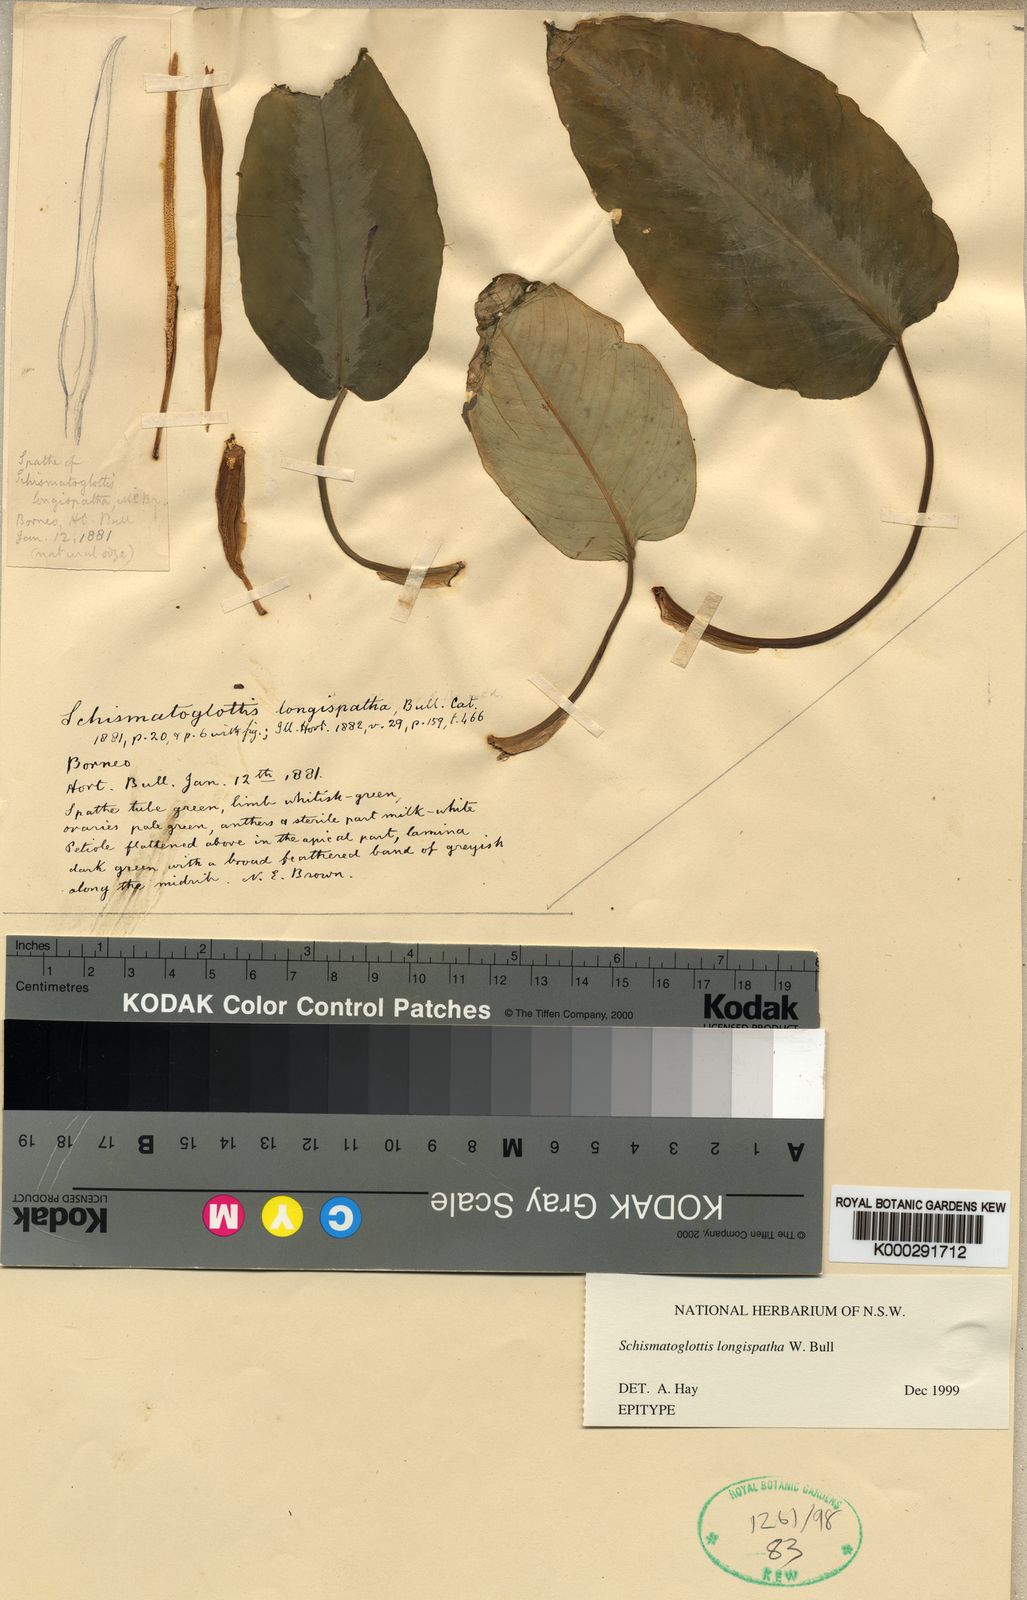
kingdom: Plantae
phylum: Tracheophyta
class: Liliopsida
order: Alismatales
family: Araceae
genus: Schismatoglottis
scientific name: Schismatoglottis longispatha
